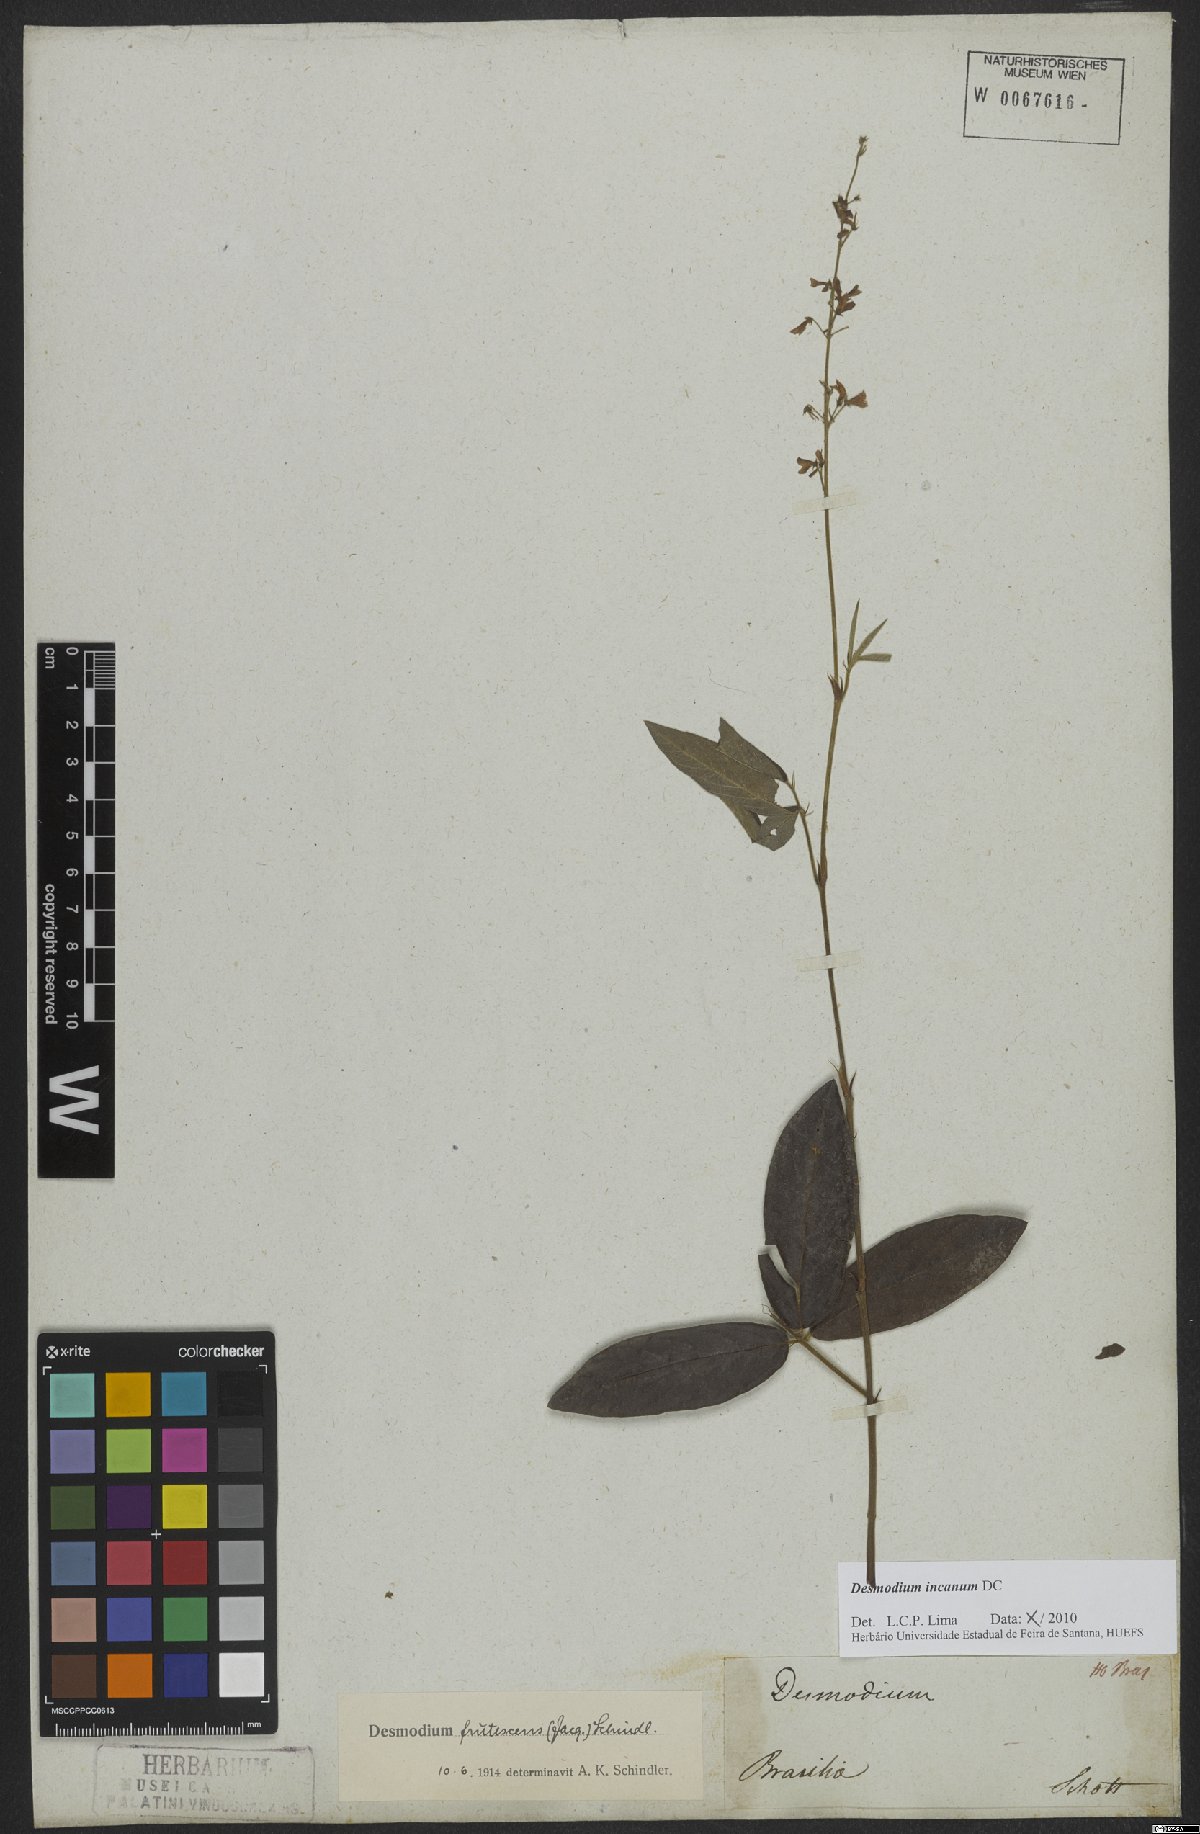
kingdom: Plantae
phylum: Tracheophyta
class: Magnoliopsida
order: Fabales
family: Fabaceae
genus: Desmodium
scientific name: Desmodium incanum
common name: Tickclover
